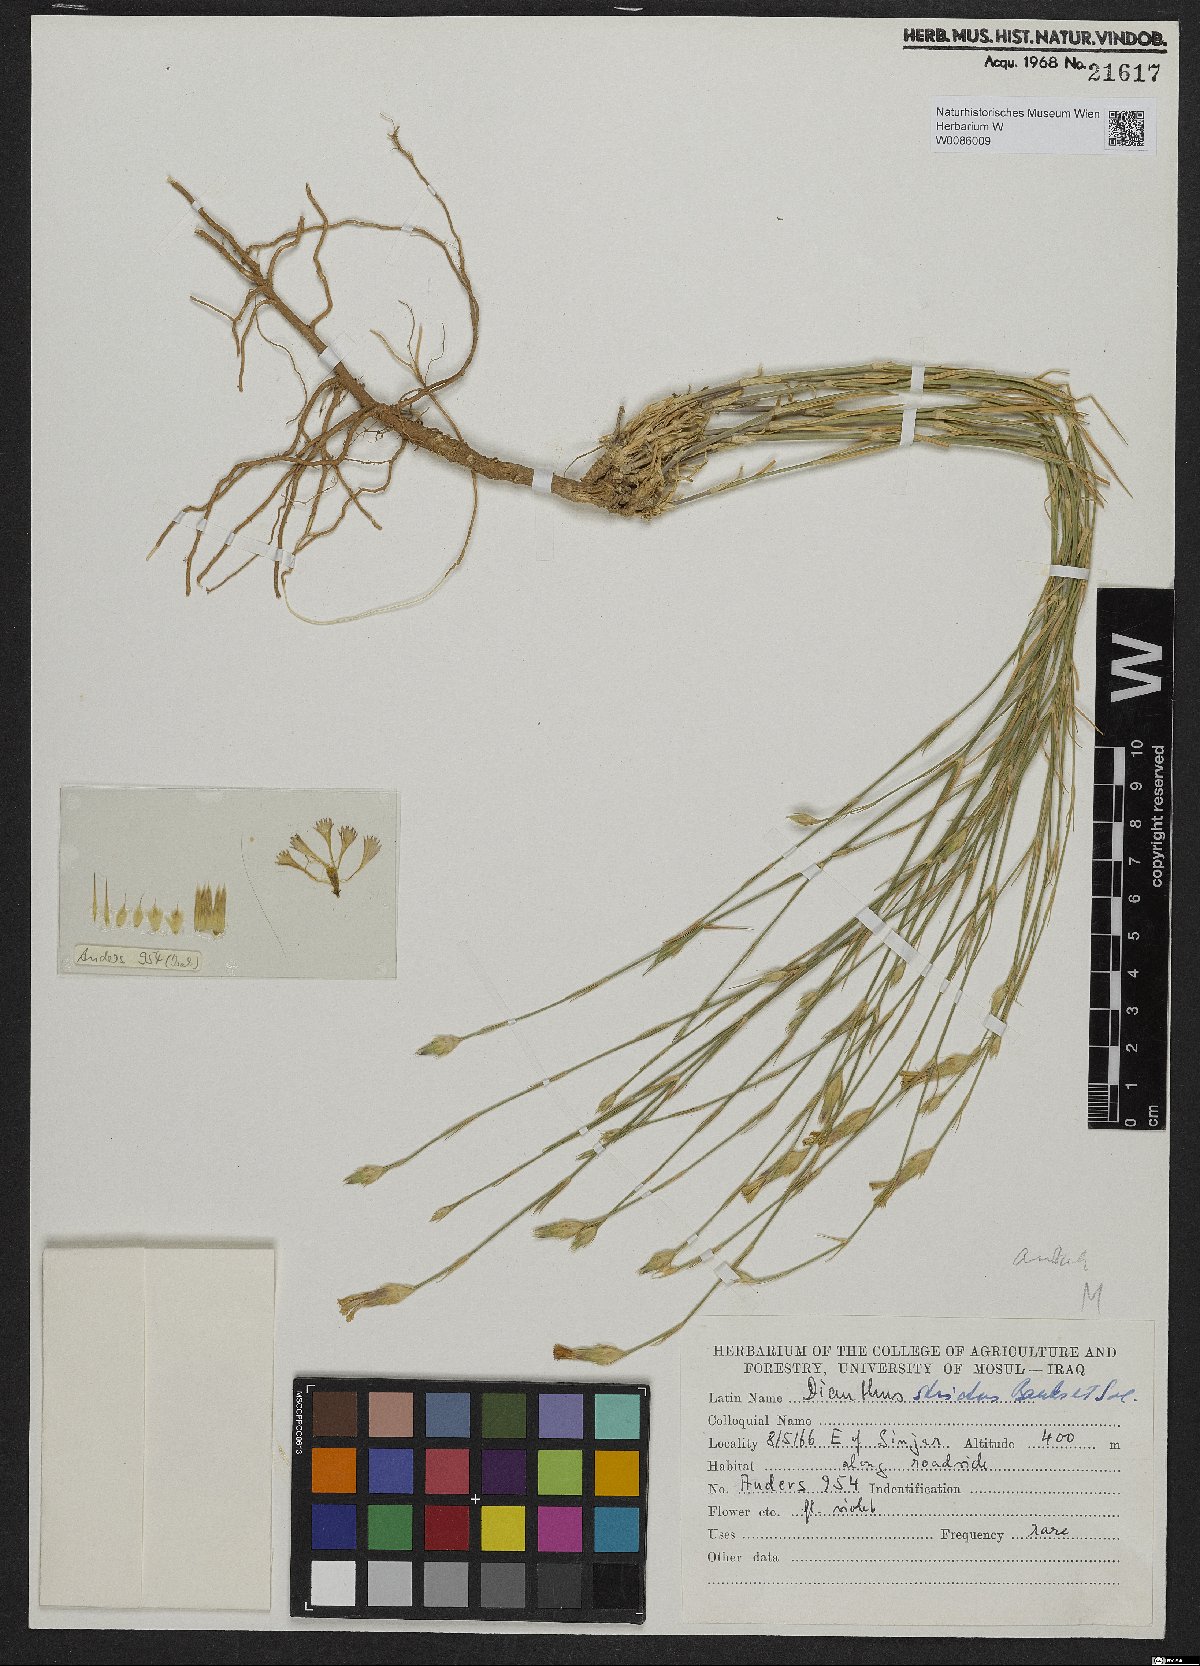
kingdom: Plantae
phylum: Tracheophyta
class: Magnoliopsida
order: Caryophyllales
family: Caryophyllaceae
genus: Dianthus
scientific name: Dianthus strictus
